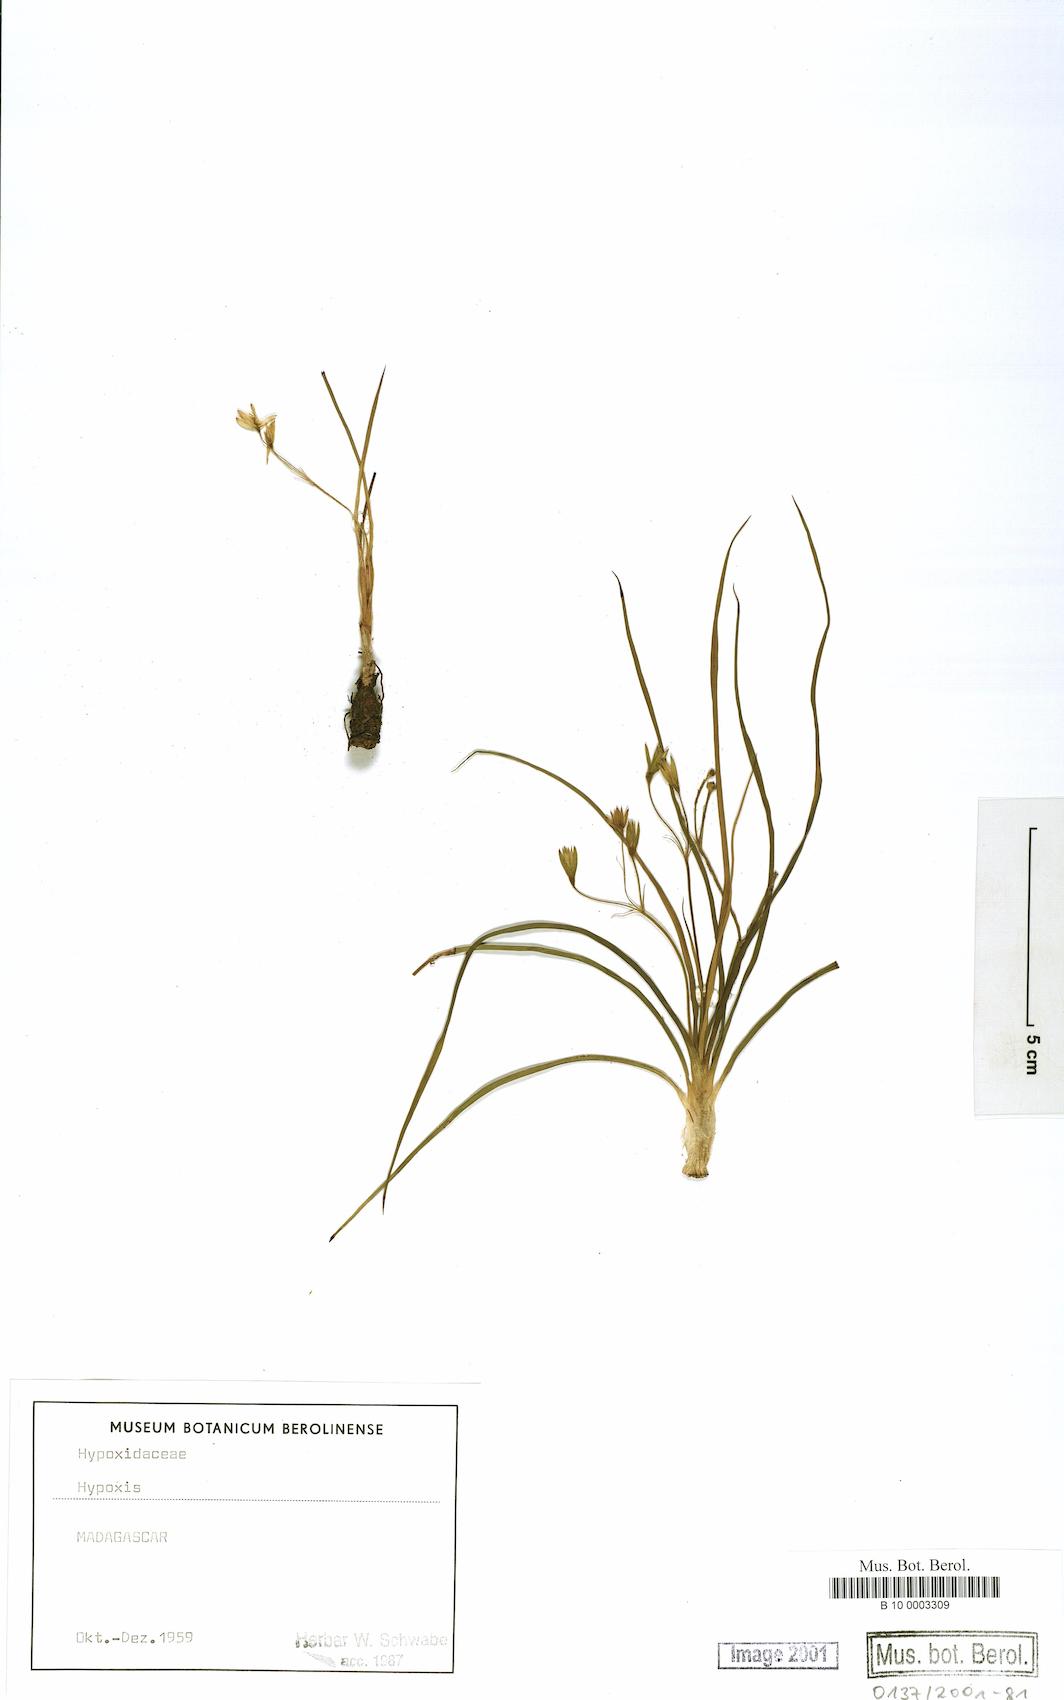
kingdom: Plantae
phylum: Tracheophyta
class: Liliopsida
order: Asparagales
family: Hypoxidaceae
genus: Hypoxis
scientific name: Hypoxis
